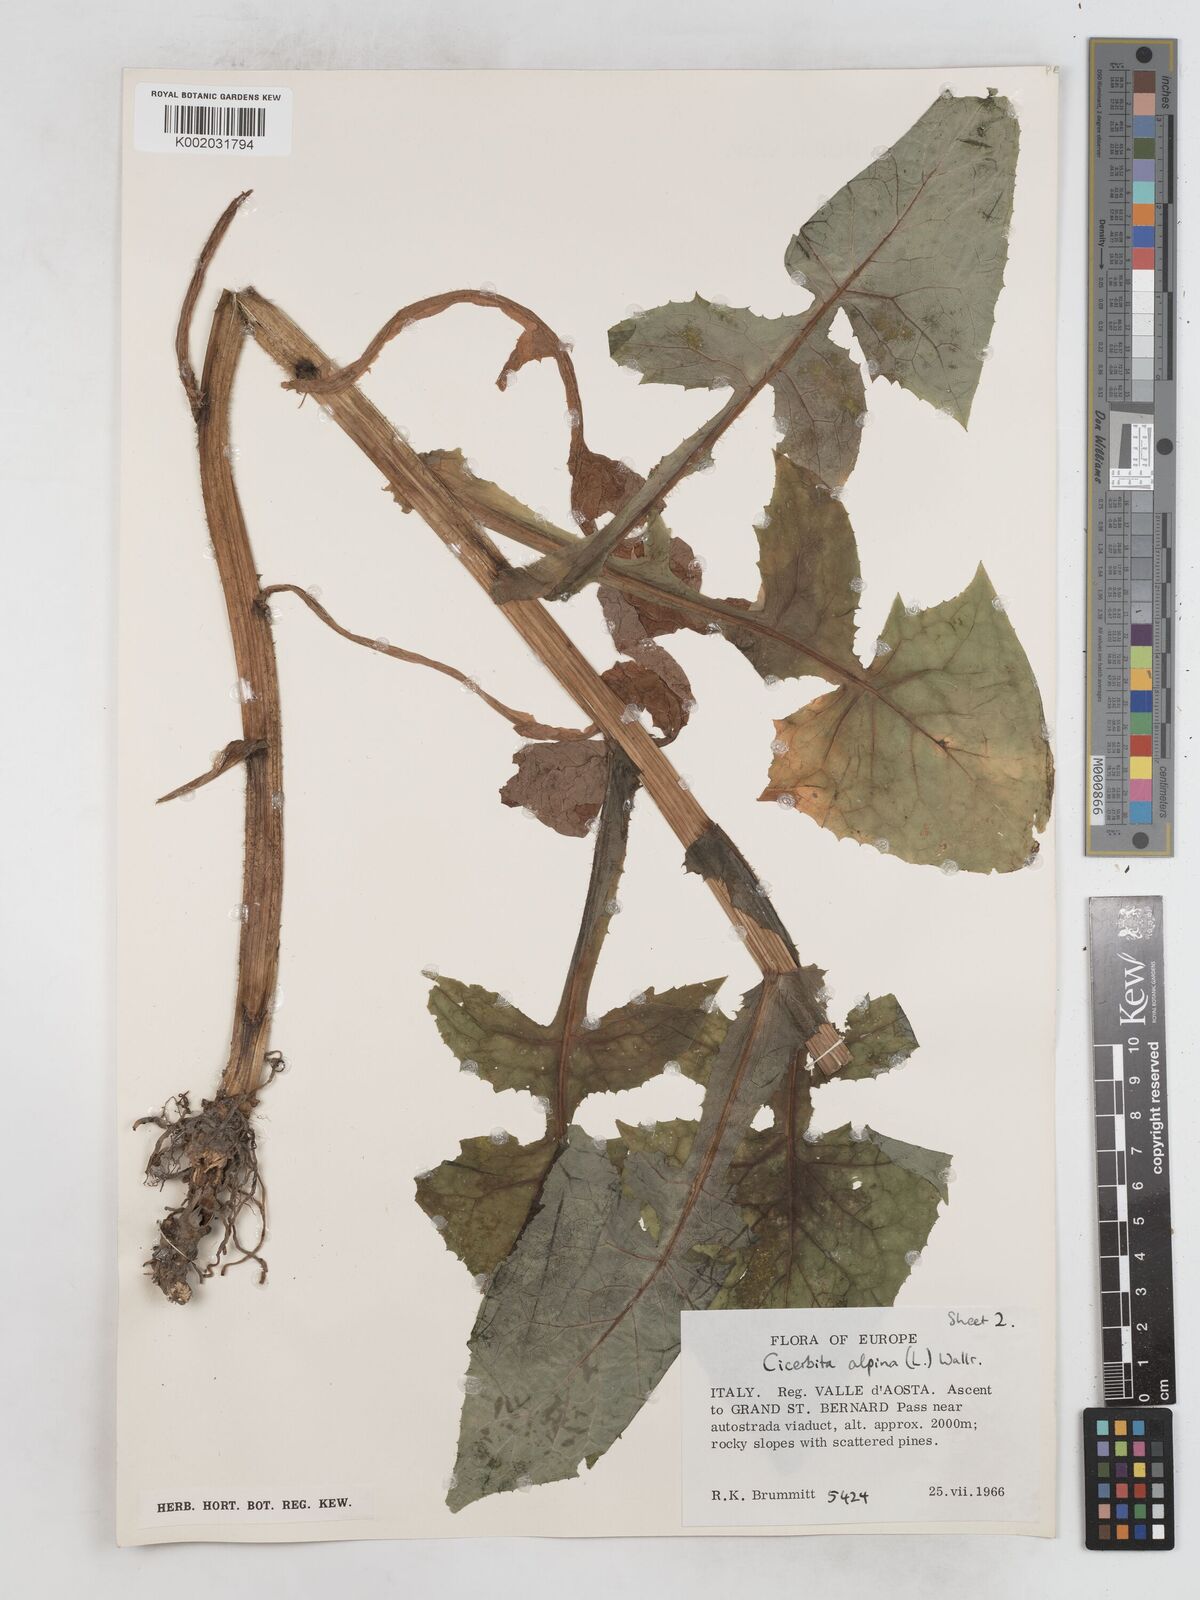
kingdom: Plantae
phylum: Tracheophyta
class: Magnoliopsida
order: Asterales
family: Asteraceae
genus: Cicerbita
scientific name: Cicerbita alpina
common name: Alpine blue-sow-thistle
